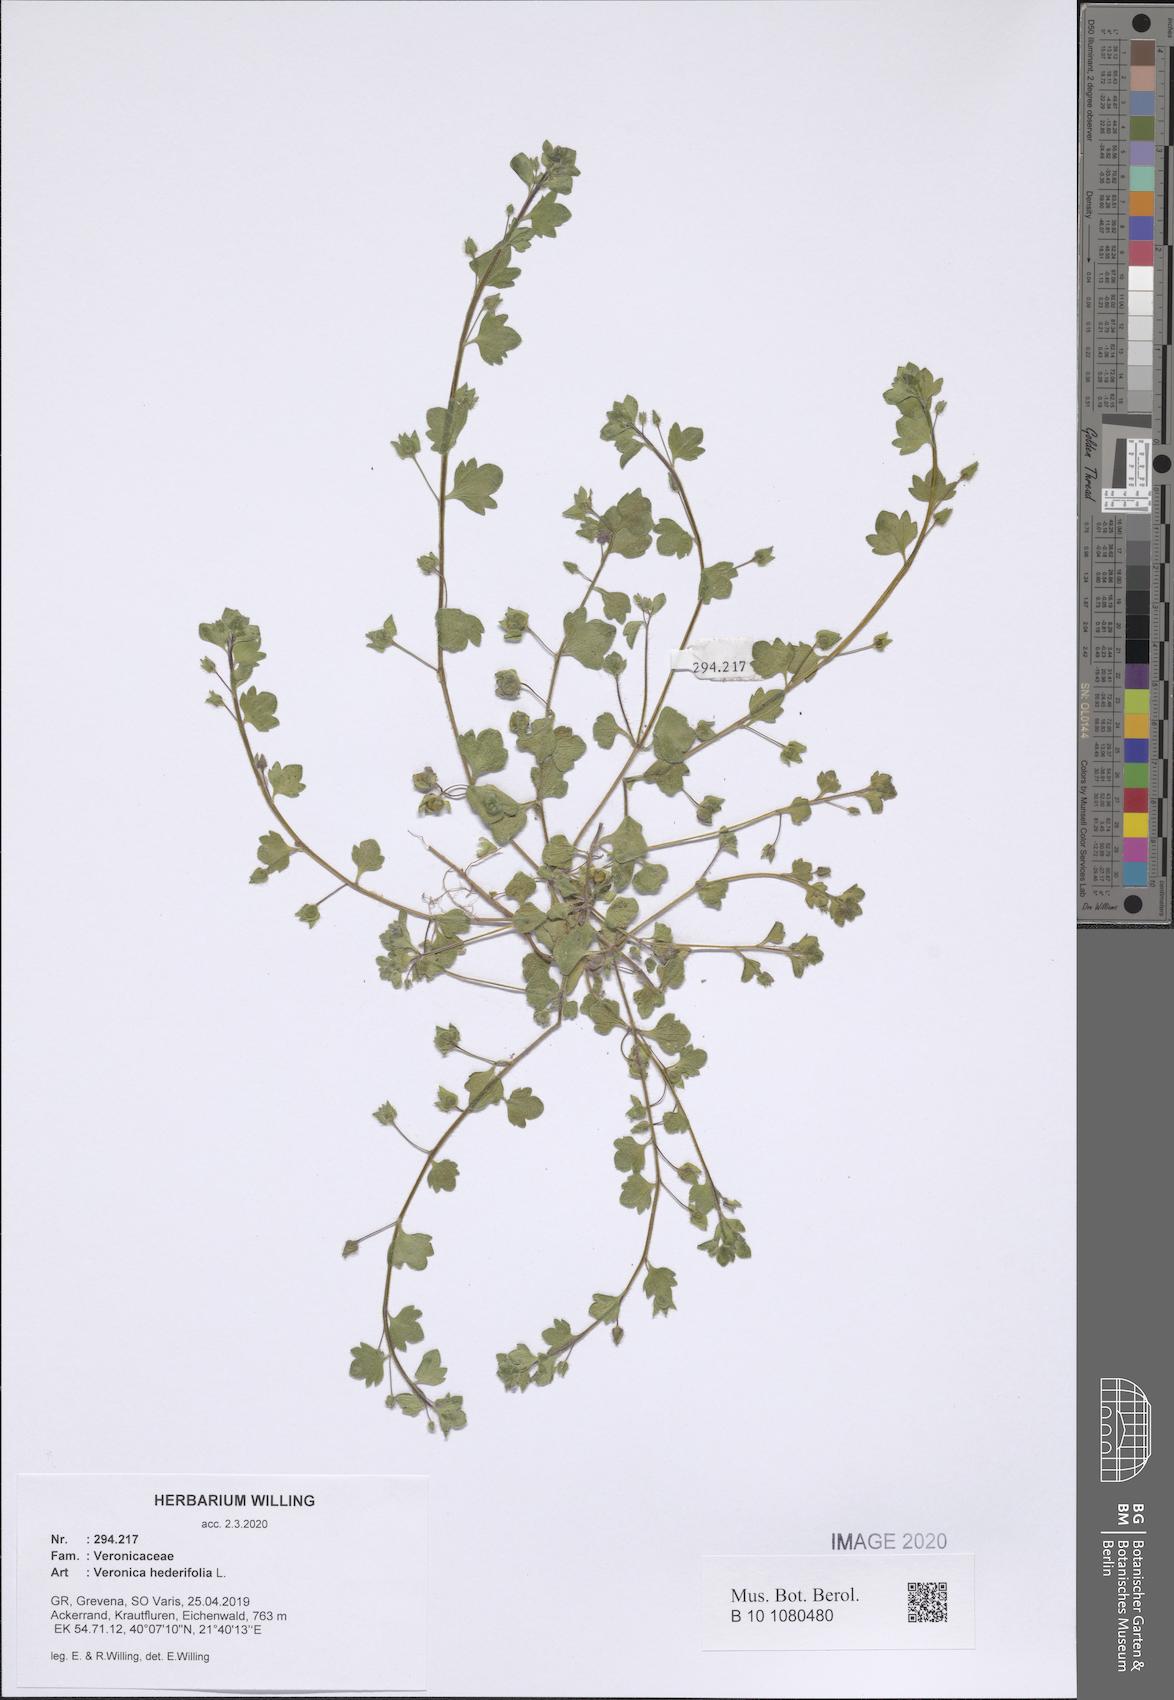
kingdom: Plantae
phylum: Tracheophyta
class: Magnoliopsida
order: Lamiales
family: Plantaginaceae
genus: Veronica
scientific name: Veronica hederifolia
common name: Ivy-leaved speedwell
